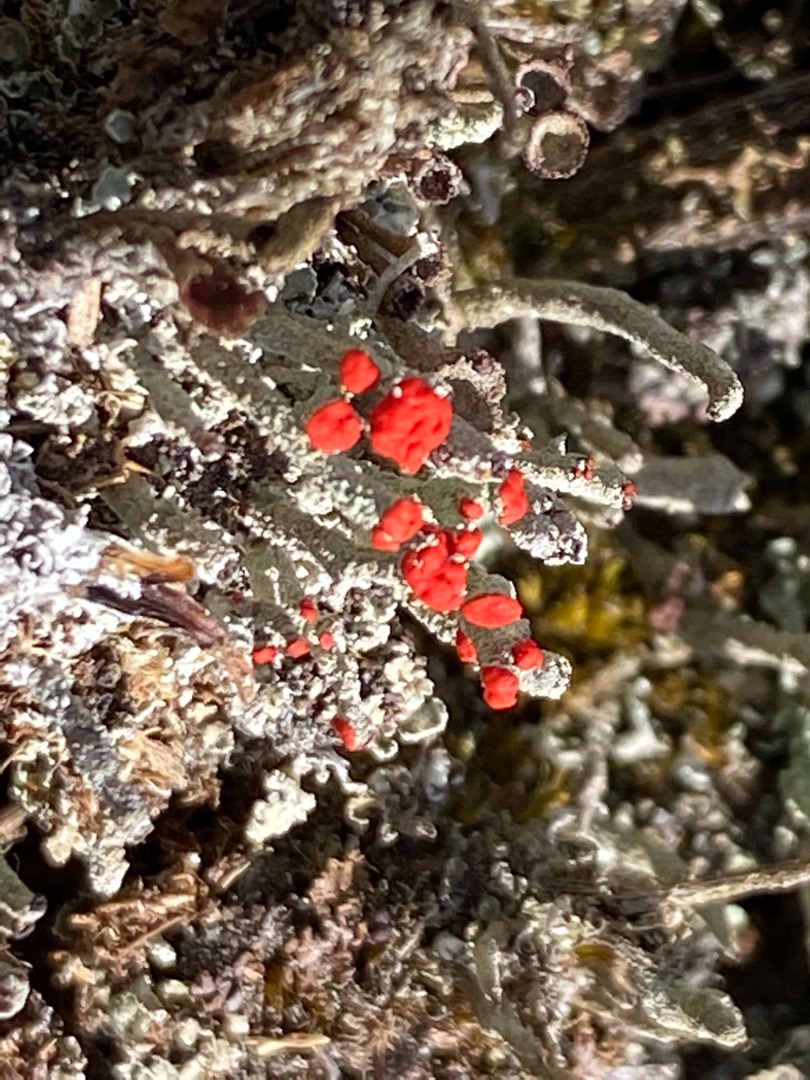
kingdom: Fungi
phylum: Ascomycota
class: Lecanoromycetes
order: Lecanorales
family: Cladoniaceae
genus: Cladonia
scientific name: Cladonia floerkeana
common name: Lakrød bægerlav
